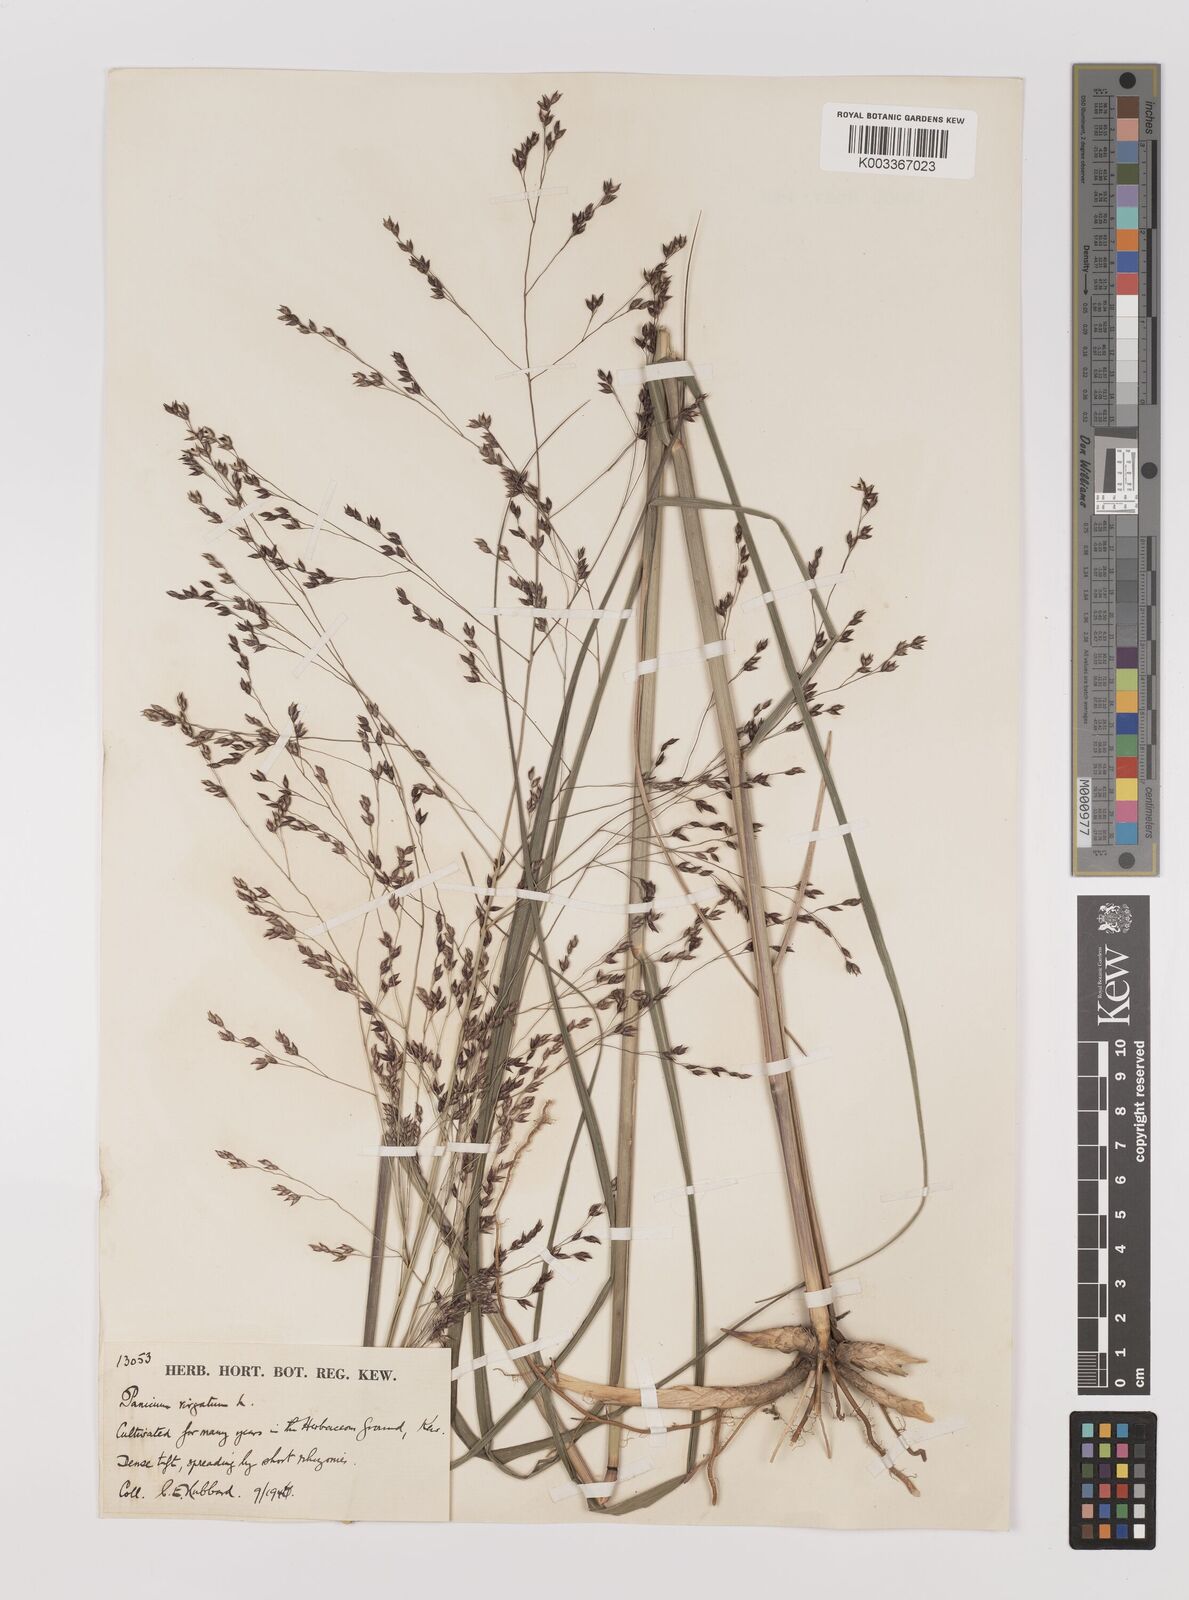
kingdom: Plantae
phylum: Tracheophyta
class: Liliopsida
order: Poales
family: Poaceae
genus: Panicum
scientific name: Panicum virgatum
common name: Switchgrass
